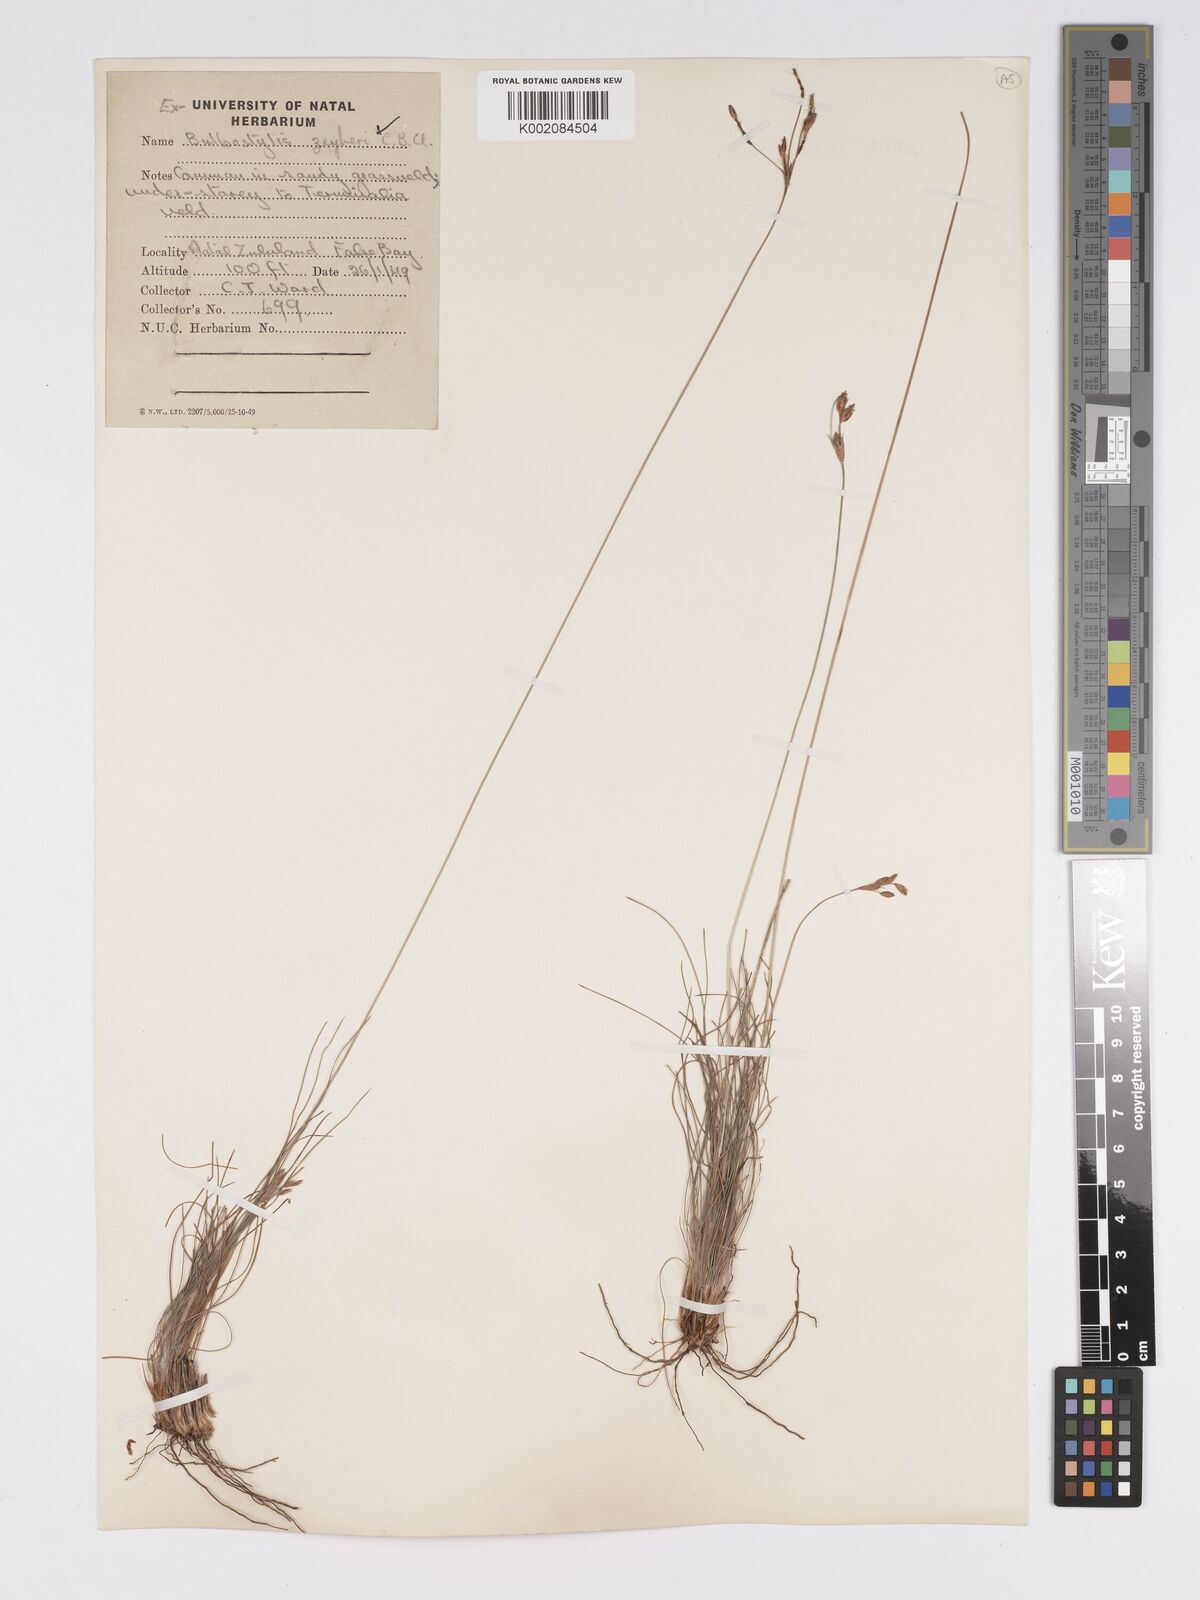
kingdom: Plantae
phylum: Tracheophyta
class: Liliopsida
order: Poales
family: Cyperaceae
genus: Bulbostylis
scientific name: Bulbostylis contexta
